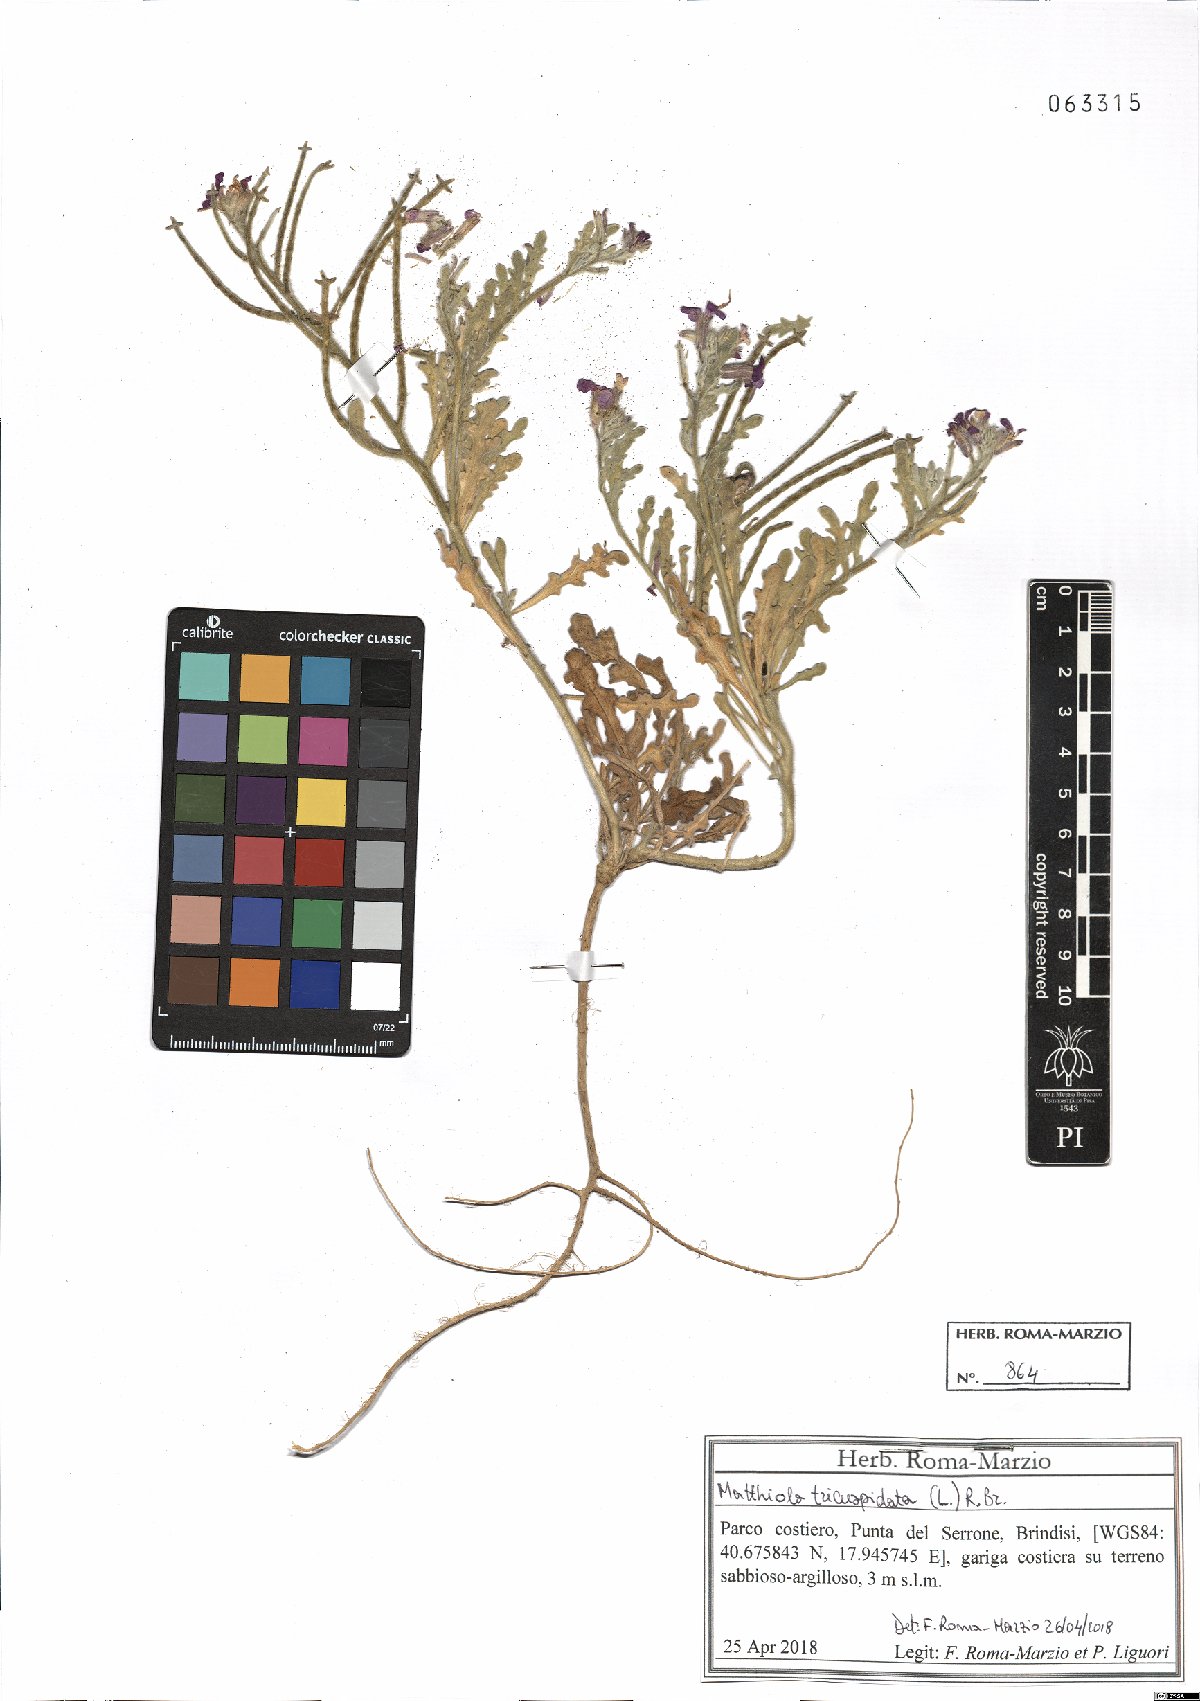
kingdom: Plantae
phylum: Tracheophyta
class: Magnoliopsida
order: Brassicales
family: Brassicaceae
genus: Matthiola
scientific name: Matthiola tricuspidata
